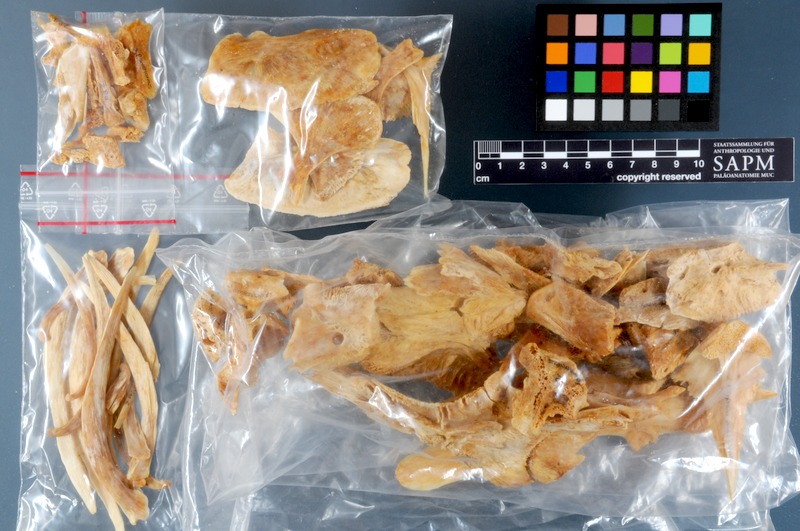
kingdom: Animalia
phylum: Chordata
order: Perciformes
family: Polyprionidae
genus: Polyprion
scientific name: Polyprion americanus
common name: Wreckfish
